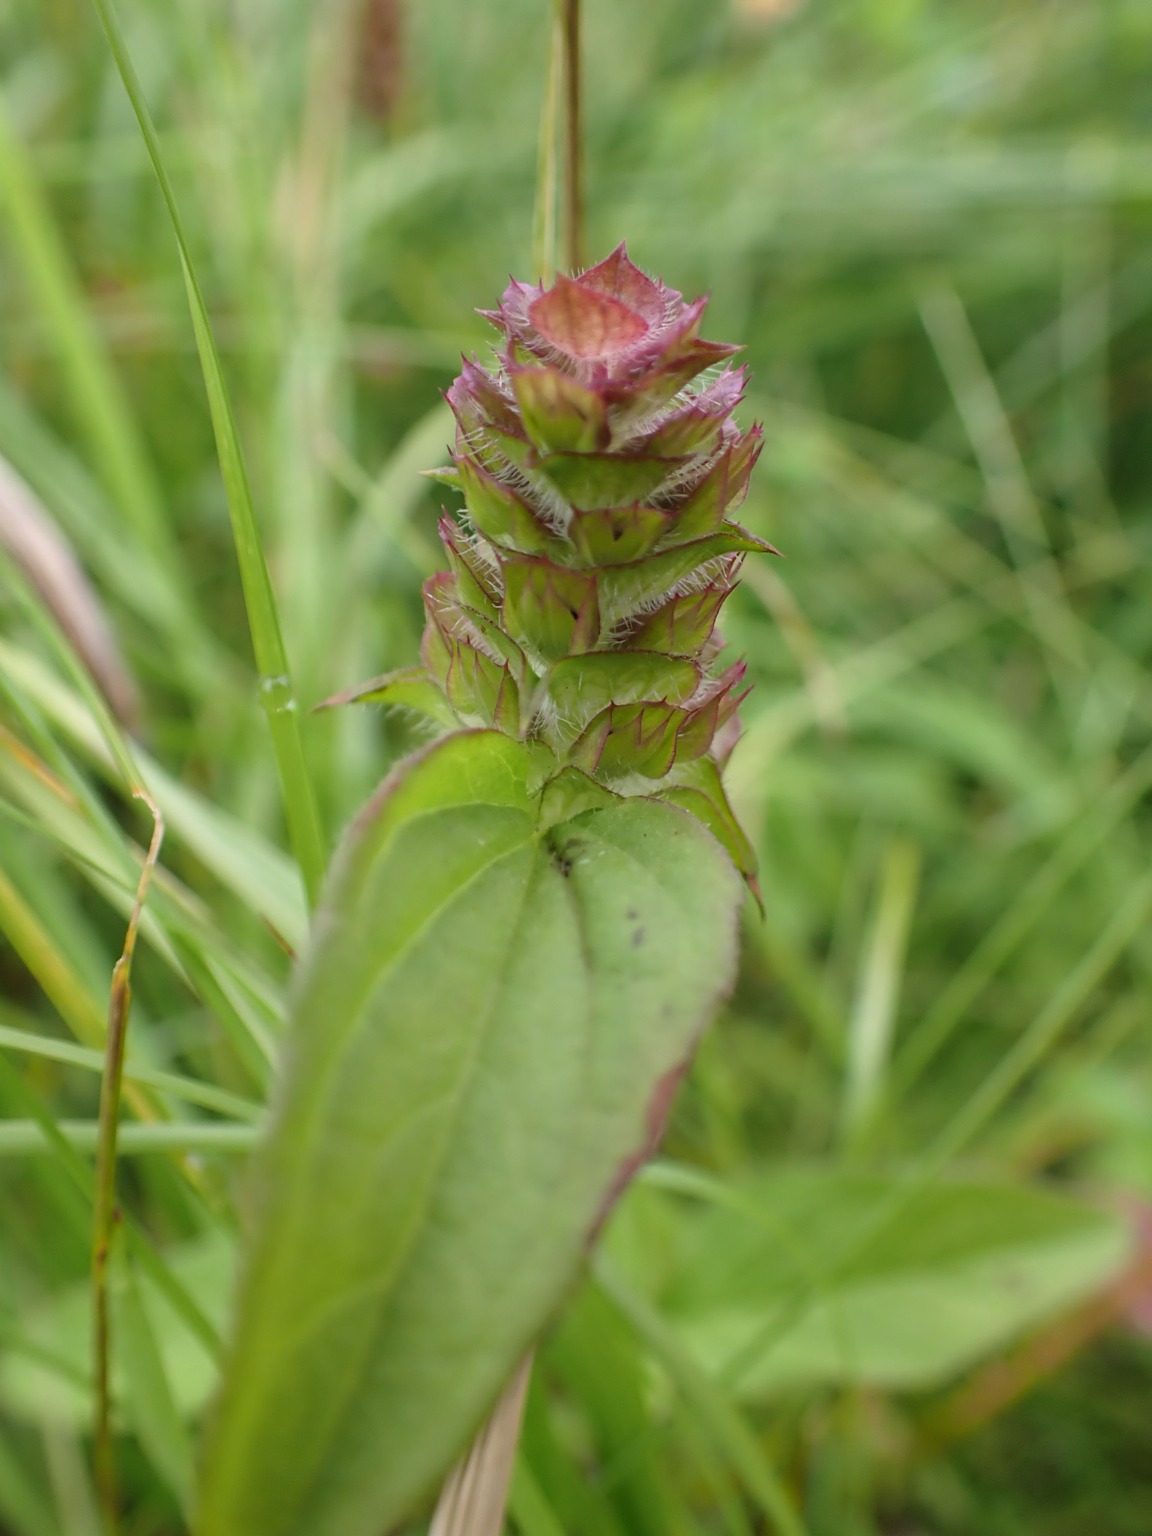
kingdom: Plantae
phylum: Tracheophyta
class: Magnoliopsida
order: Lamiales
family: Lamiaceae
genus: Prunella
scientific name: Prunella vulgaris
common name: Almindelig brunelle
